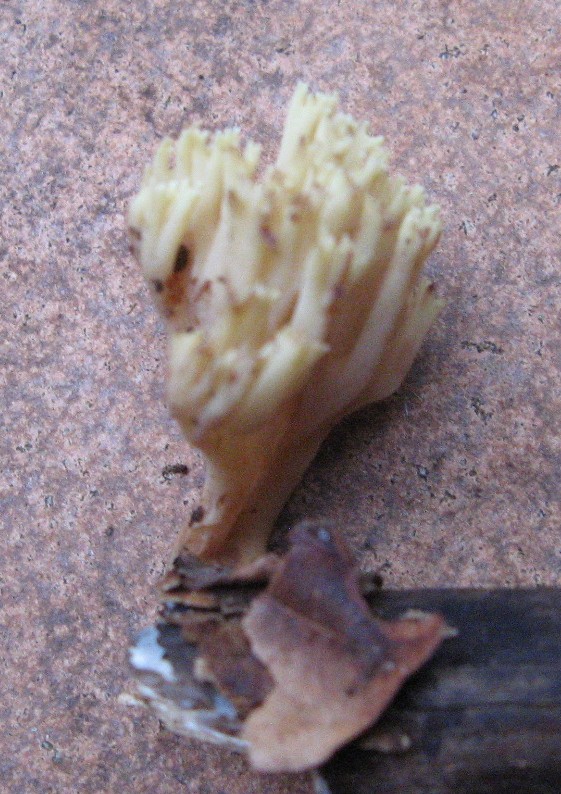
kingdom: Fungi
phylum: Basidiomycota
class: Agaricomycetes
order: Gomphales
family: Gomphaceae
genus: Ramaria
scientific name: Ramaria stricta
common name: rank koralsvamp
